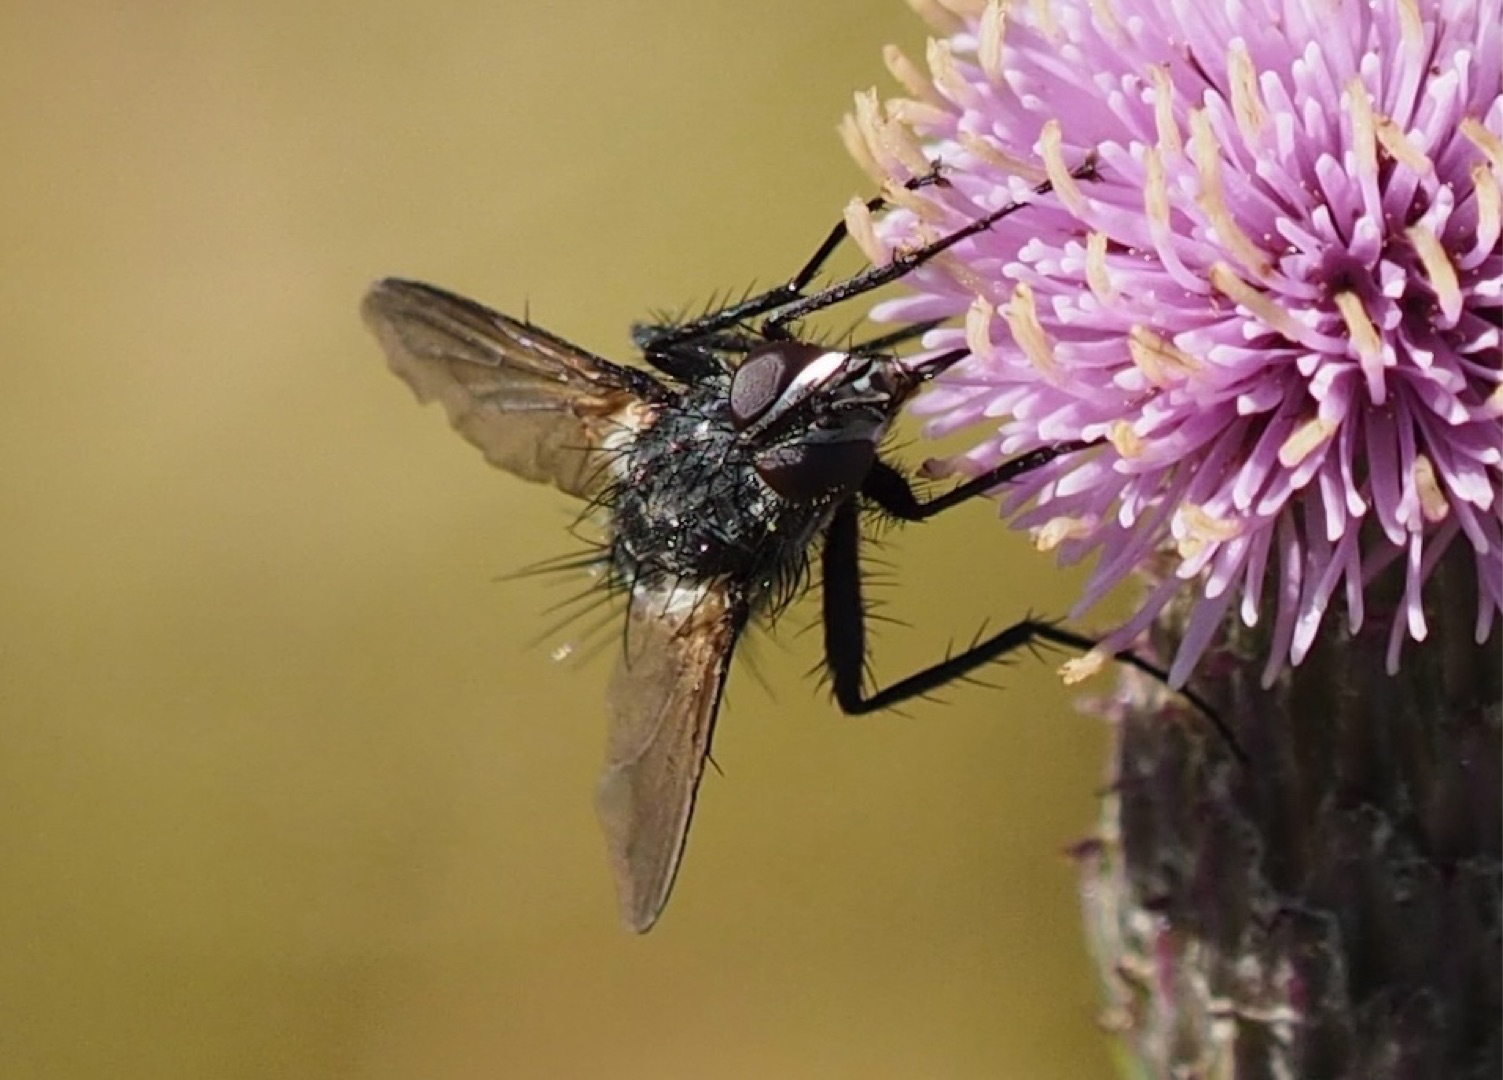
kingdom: Animalia
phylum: Arthropoda
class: Insecta
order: Diptera
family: Tachinidae
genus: Eriothrix
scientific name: Eriothrix rufomaculatus
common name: Rød snylteflue
